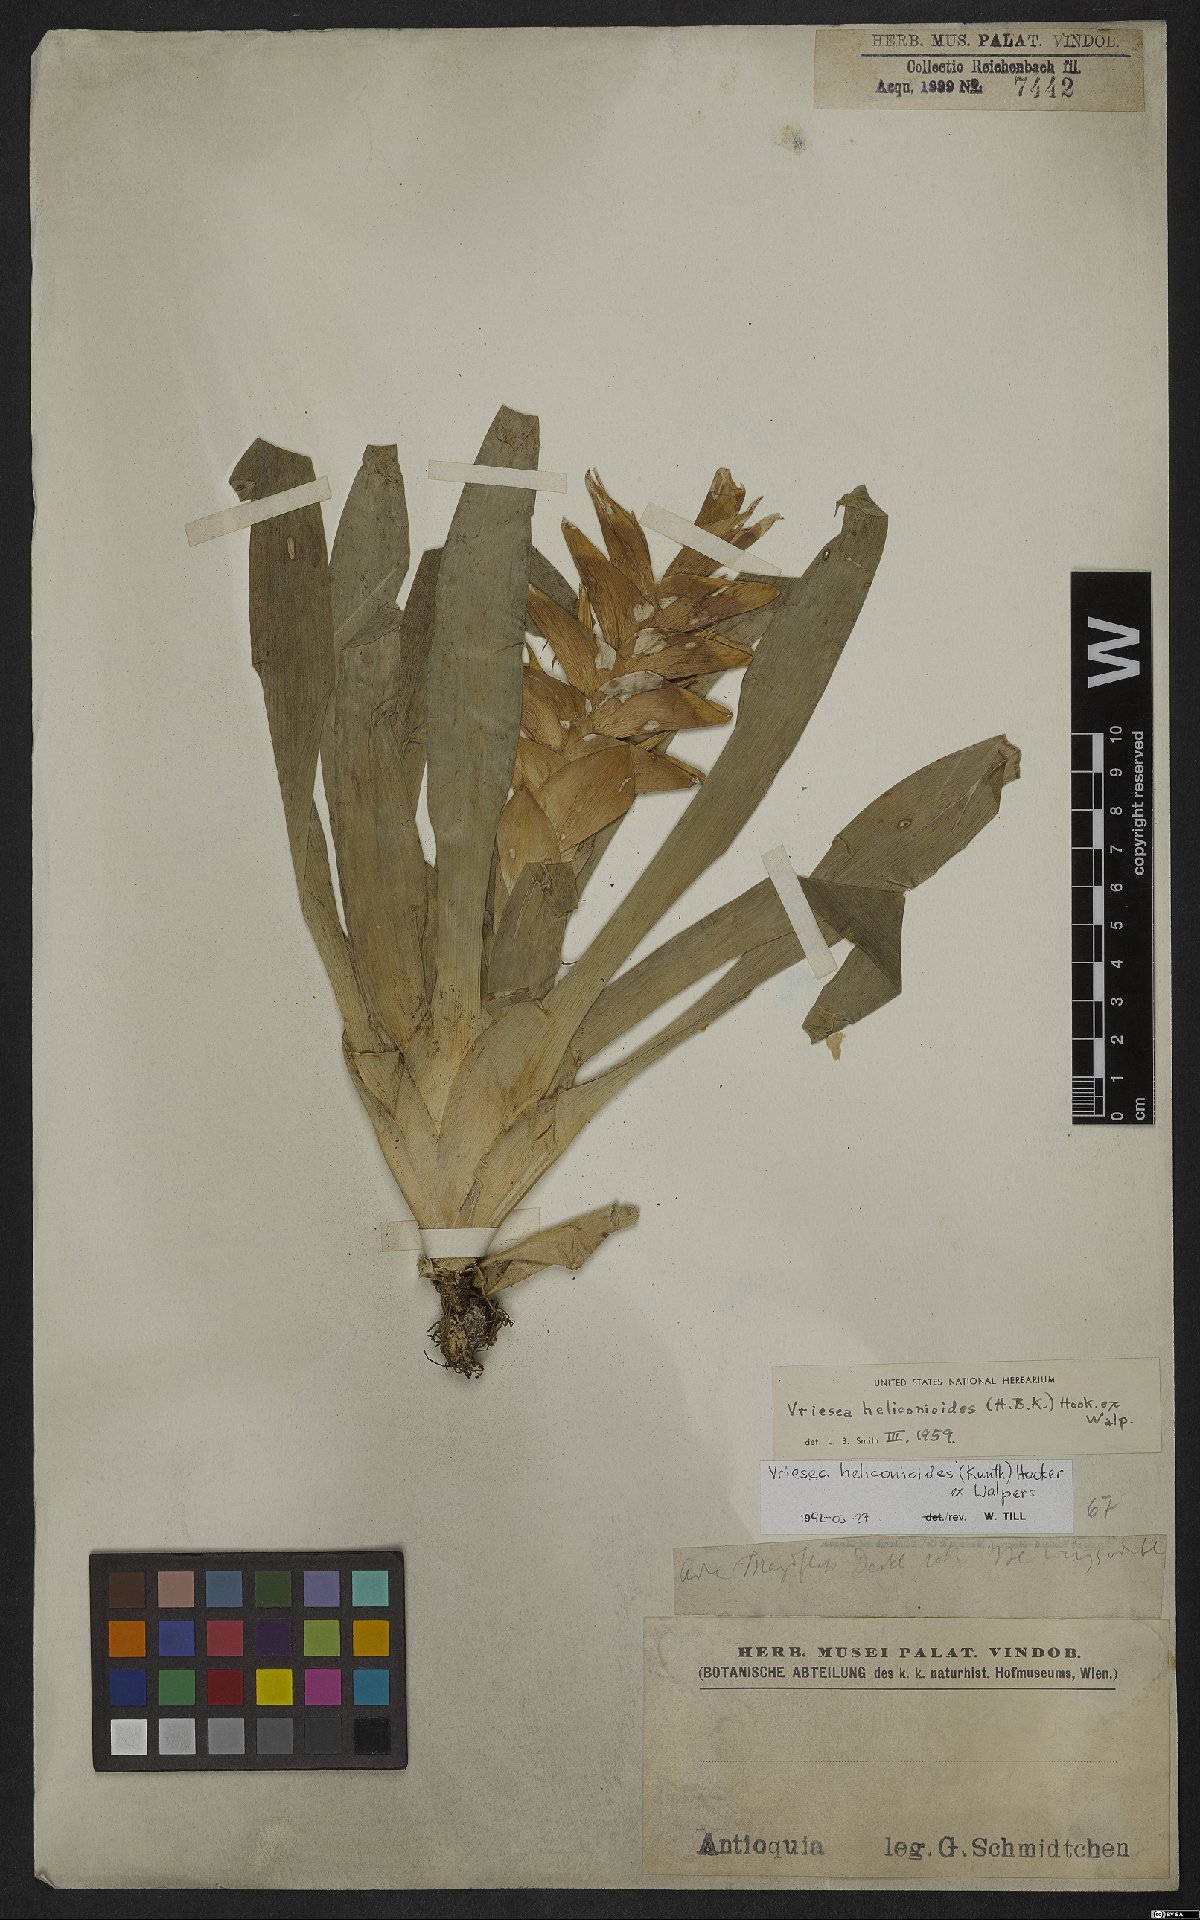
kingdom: Plantae
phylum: Tracheophyta
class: Liliopsida
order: Poales
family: Bromeliaceae
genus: Tillandsia
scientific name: Tillandsia heliconioides
